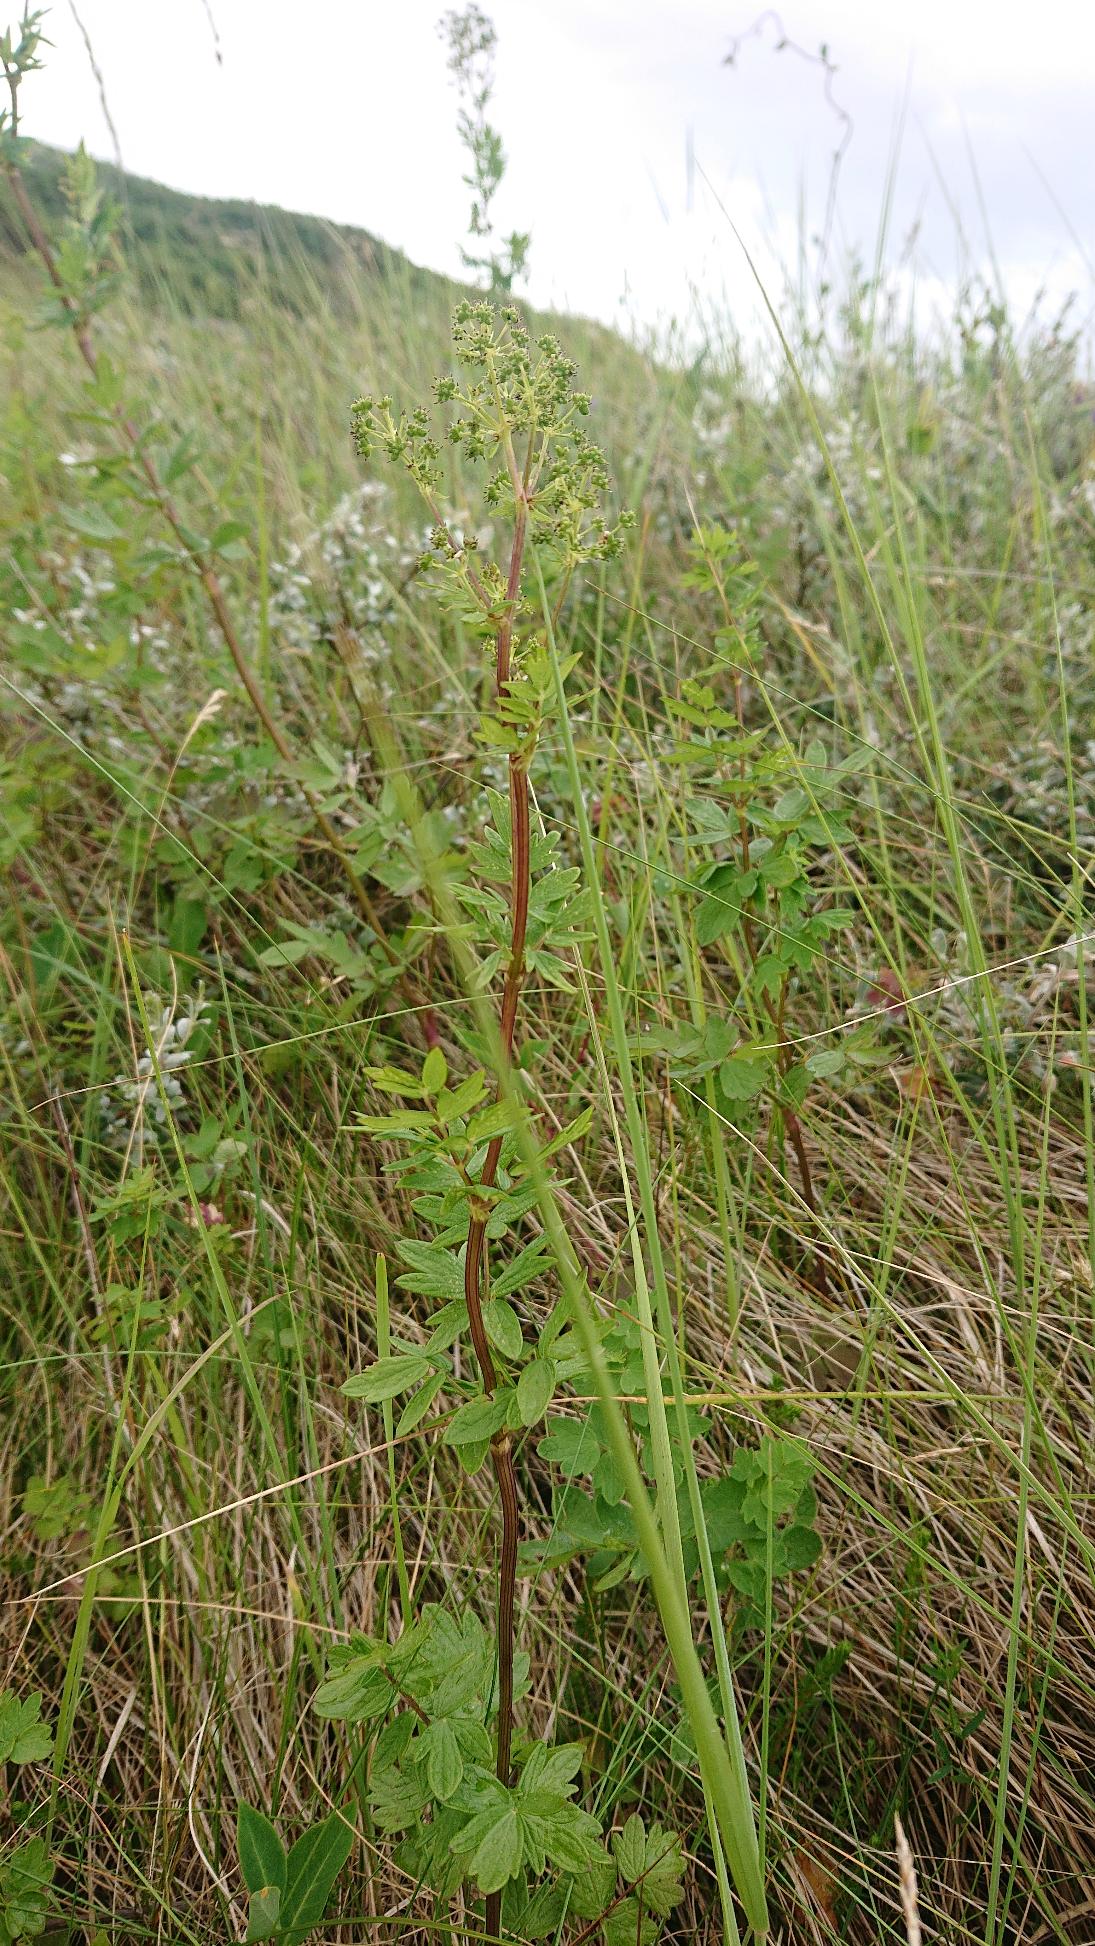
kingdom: Plantae
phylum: Tracheophyta
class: Magnoliopsida
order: Ranunculales
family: Ranunculaceae
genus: Thalictrum
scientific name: Thalictrum flavum
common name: Gul frøstjerne
